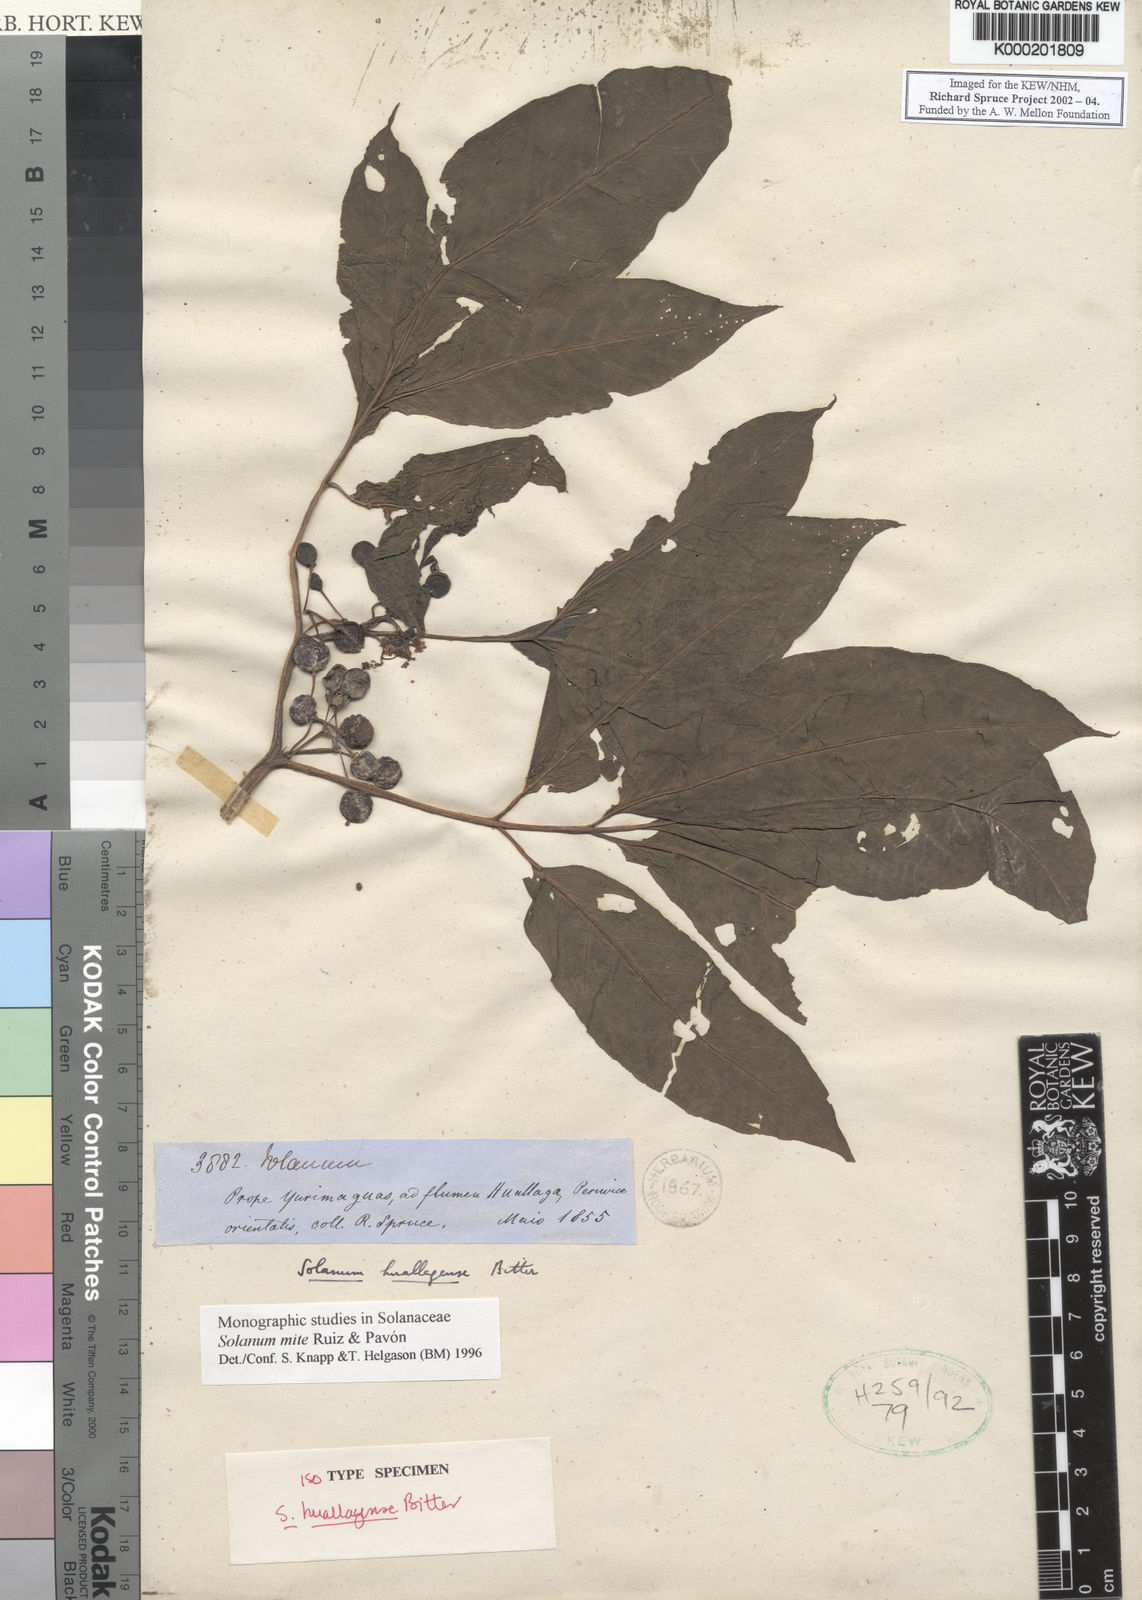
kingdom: Plantae
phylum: Tracheophyta
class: Magnoliopsida
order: Solanales
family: Solanaceae
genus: Solanum
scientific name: Solanum mite
